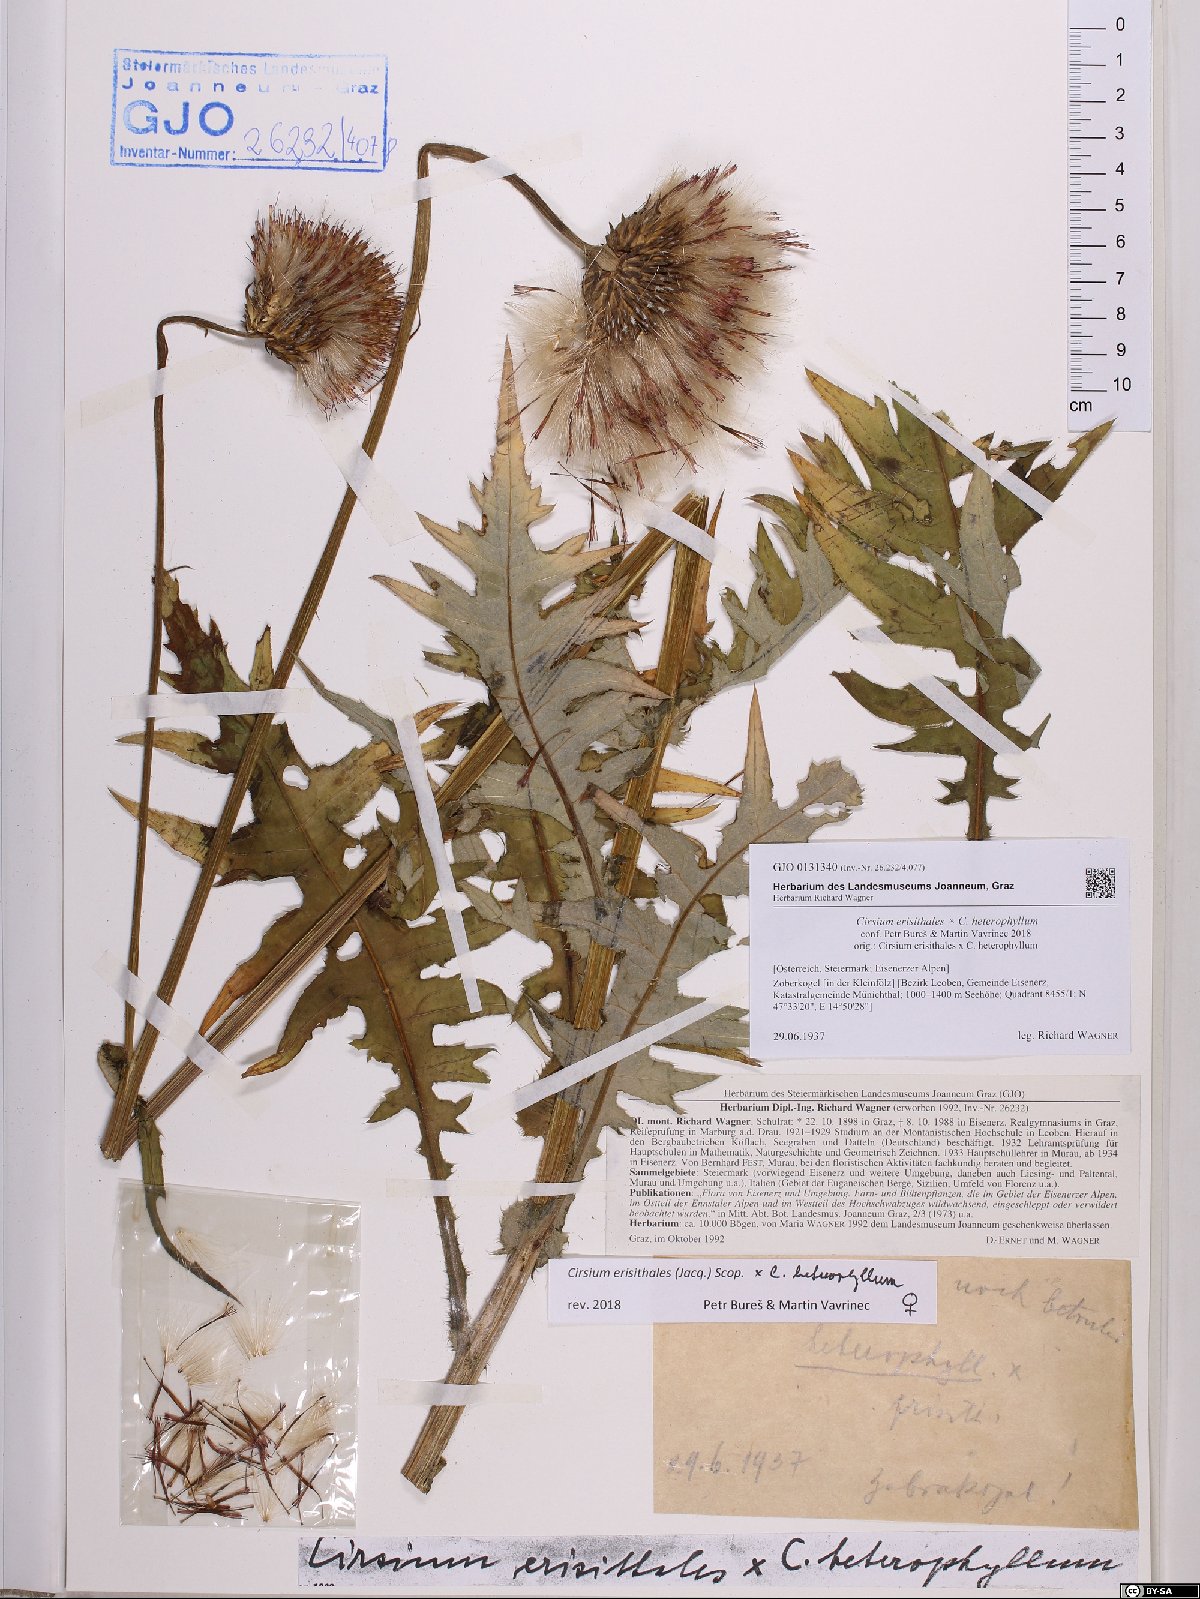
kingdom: Plantae
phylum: Tracheophyta
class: Magnoliopsida
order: Asterales
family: Asteraceae
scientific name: Asteraceae
